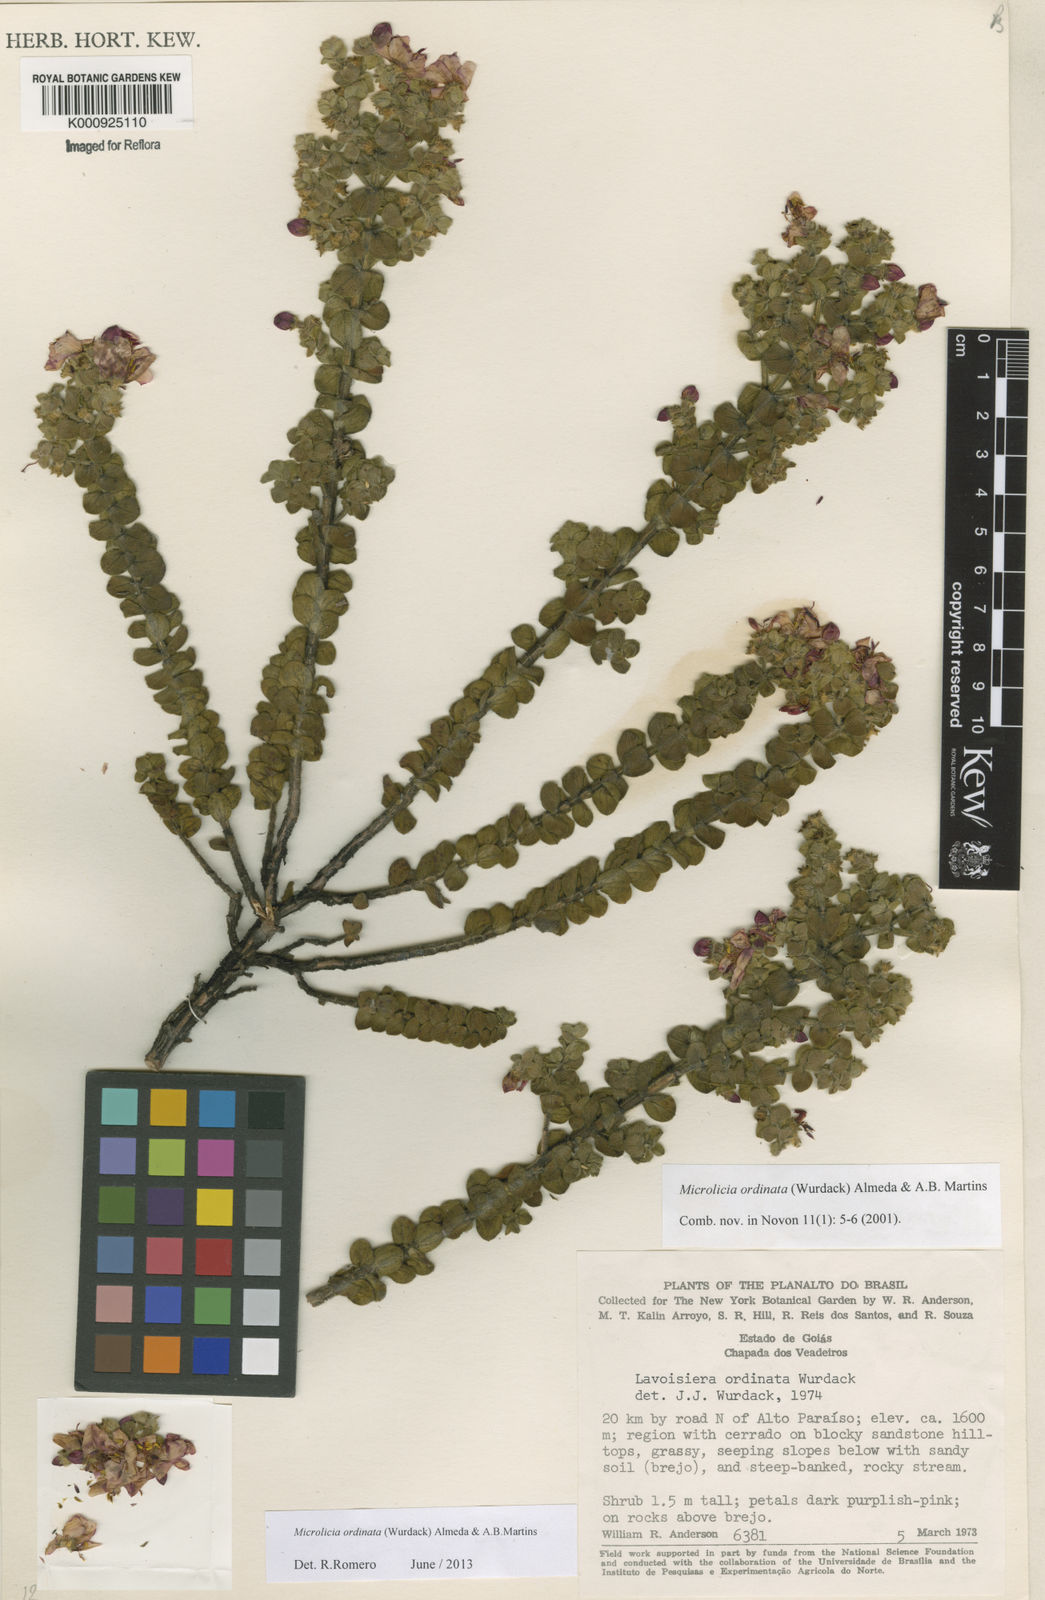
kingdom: Plantae
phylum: Tracheophyta
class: Magnoliopsida
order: Myrtales
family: Melastomataceae
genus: Microlicia
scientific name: Microlicia ordinata
